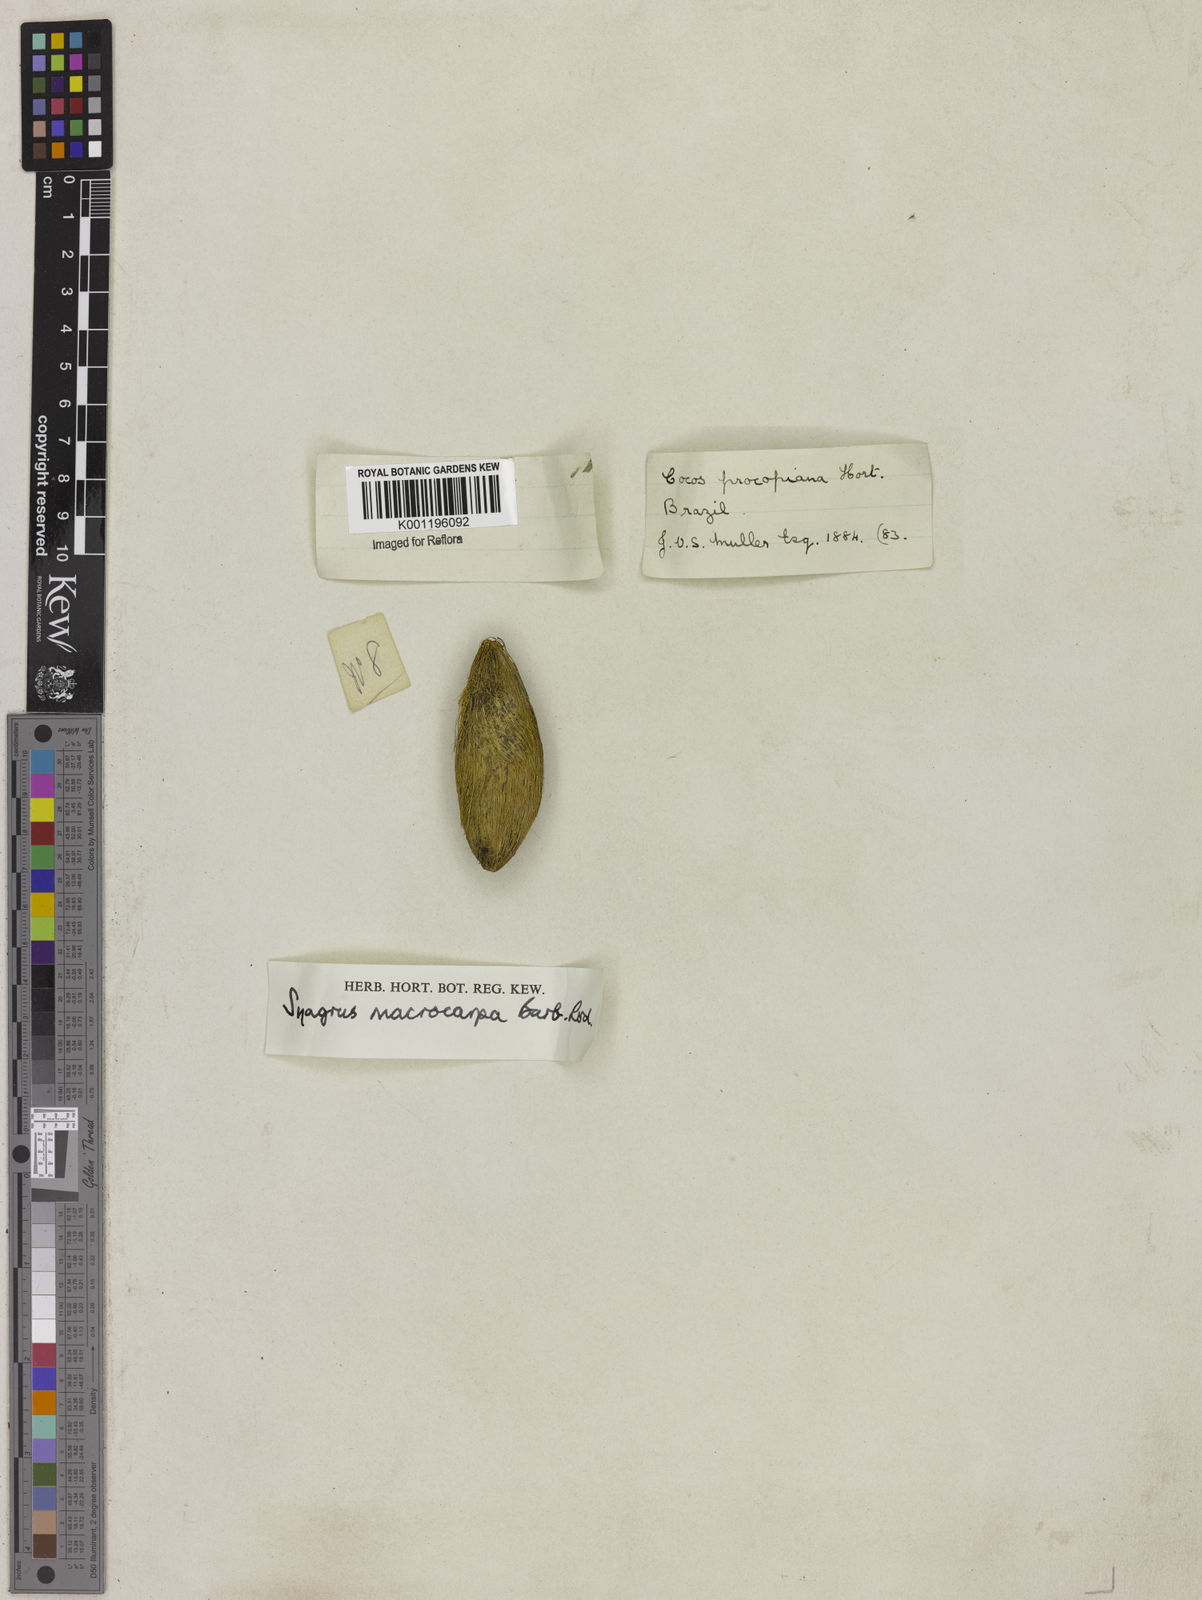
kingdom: Plantae
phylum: Tracheophyta
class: Liliopsida
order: Arecales
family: Arecaceae
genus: Syagrus
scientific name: Syagrus macrocarpa
